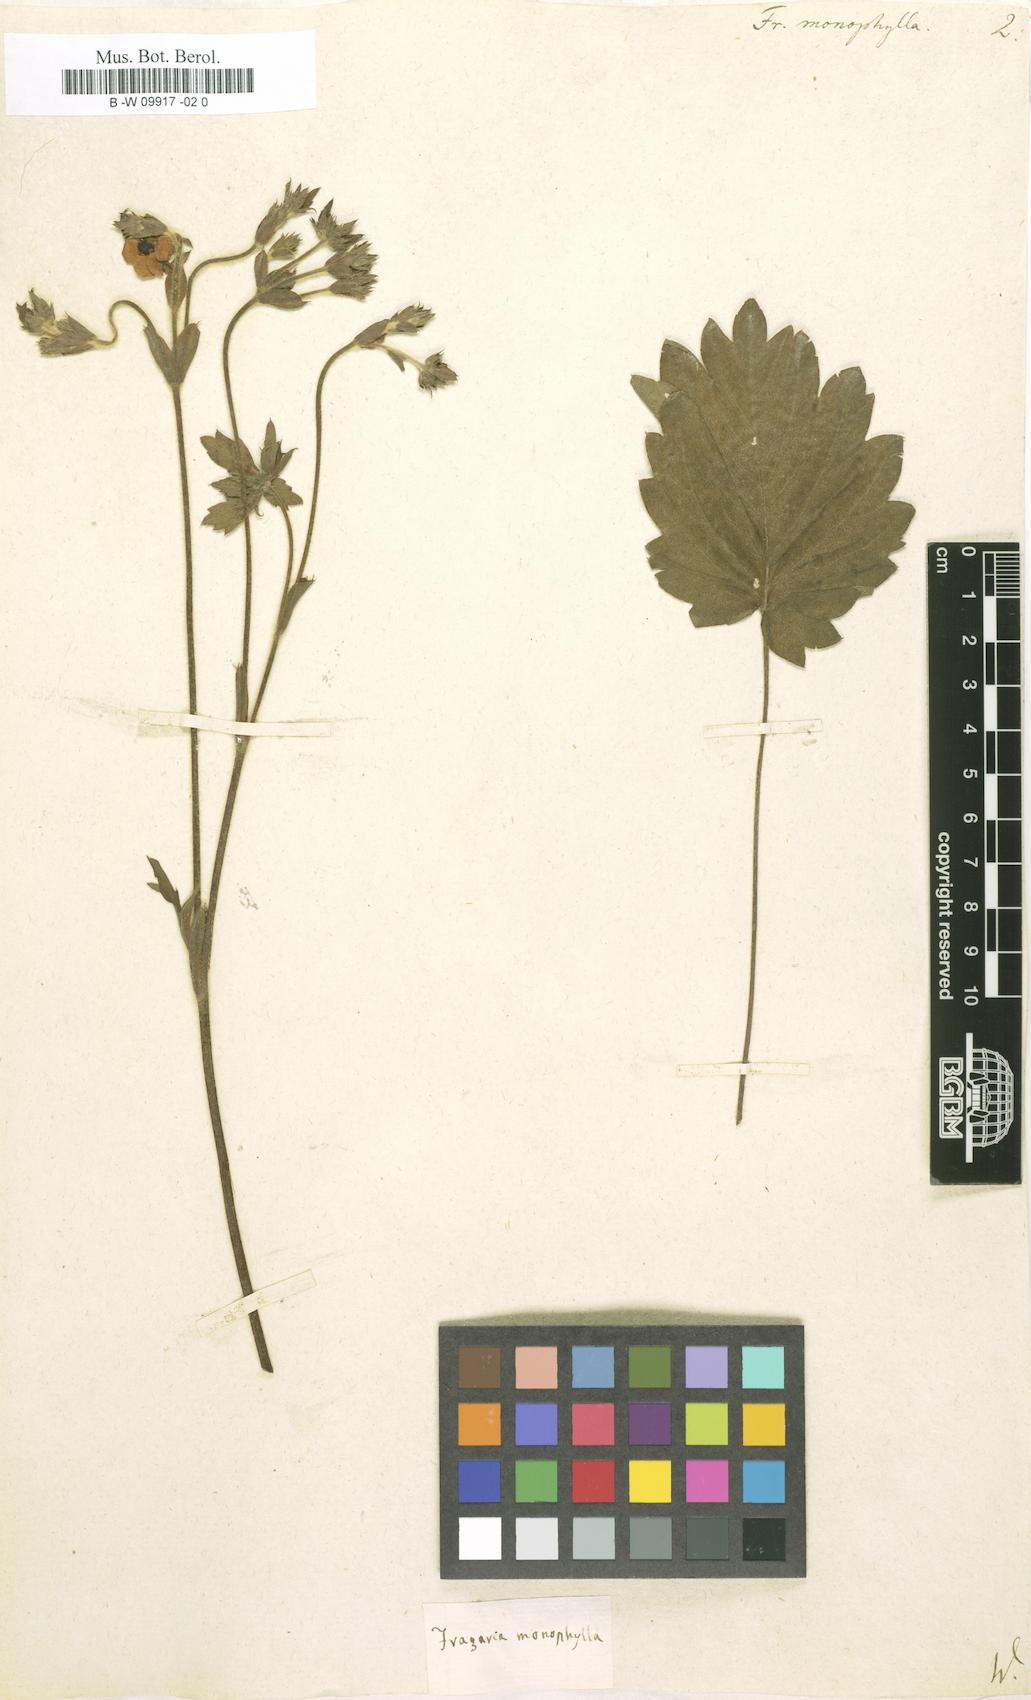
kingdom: Plantae
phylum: Tracheophyta
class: Magnoliopsida
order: Rosales
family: Rosaceae
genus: Fragaria
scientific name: Fragaria vesca
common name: Wild strawberry
